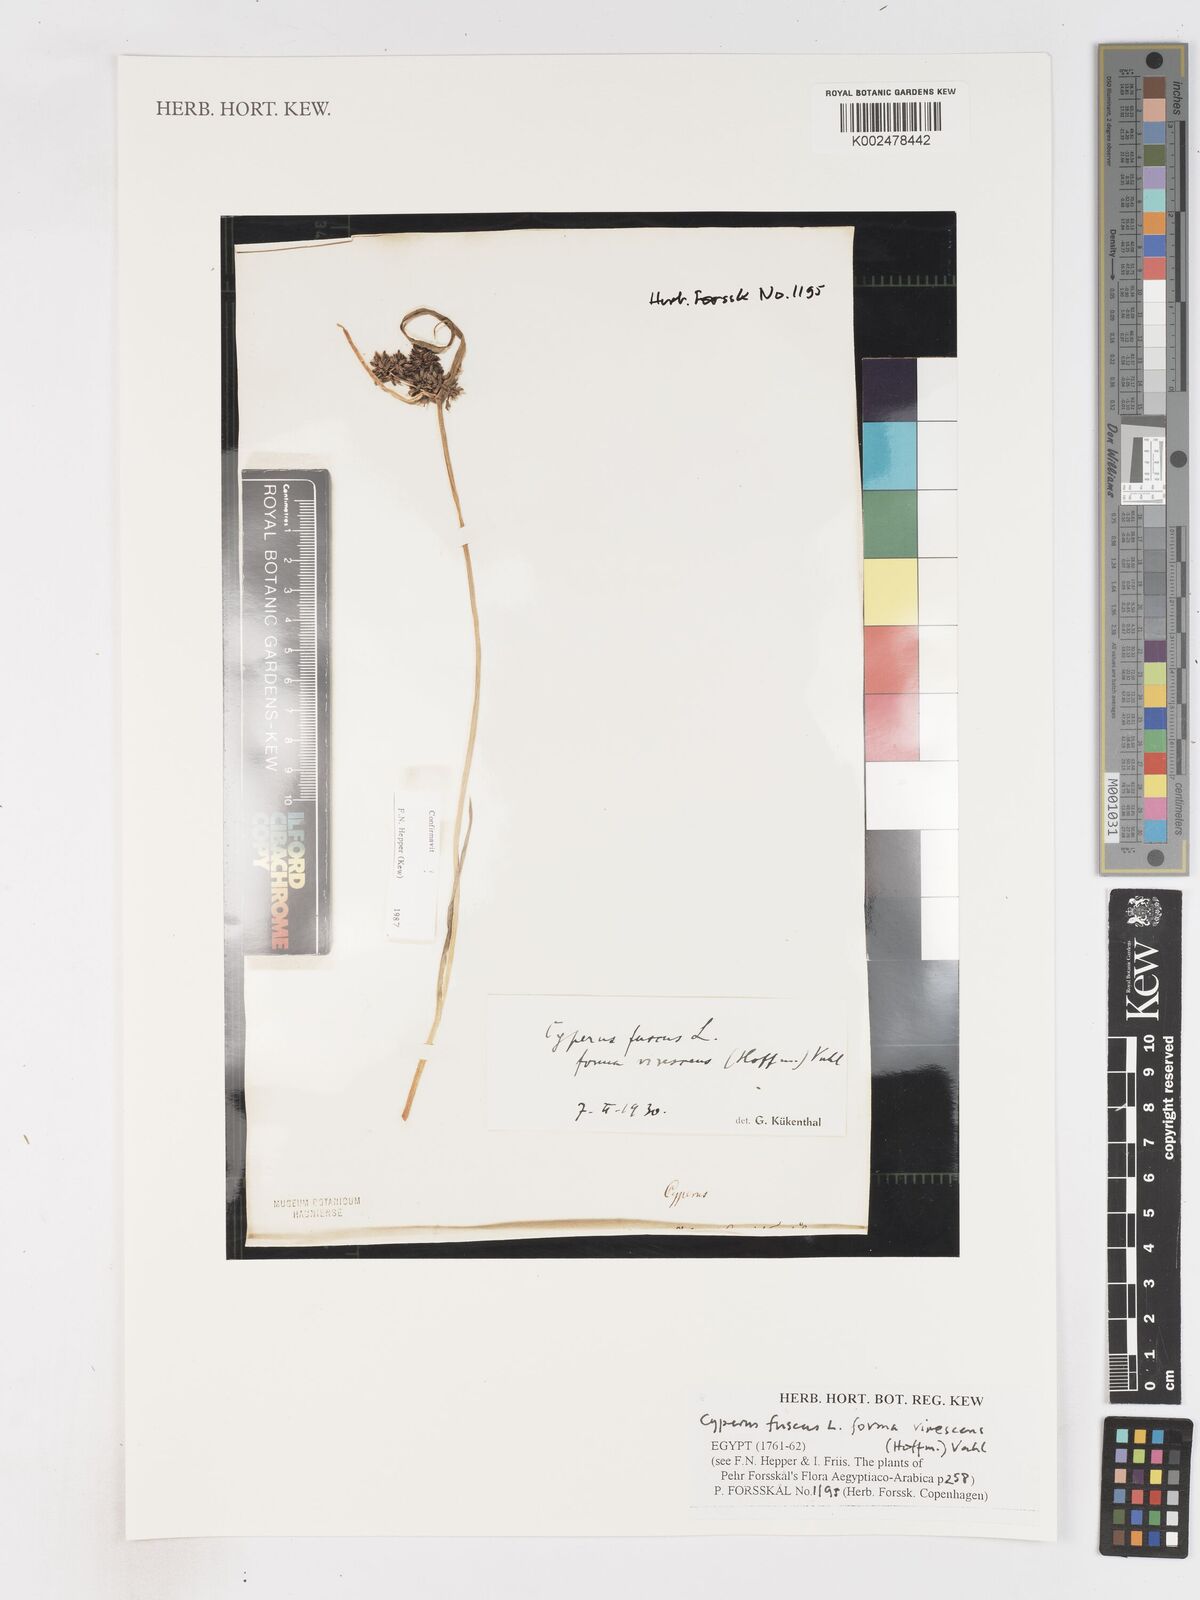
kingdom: Plantae
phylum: Tracheophyta
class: Liliopsida
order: Poales
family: Cyperaceae
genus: Cyperus
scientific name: Cyperus fuscus
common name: Brown galingale
